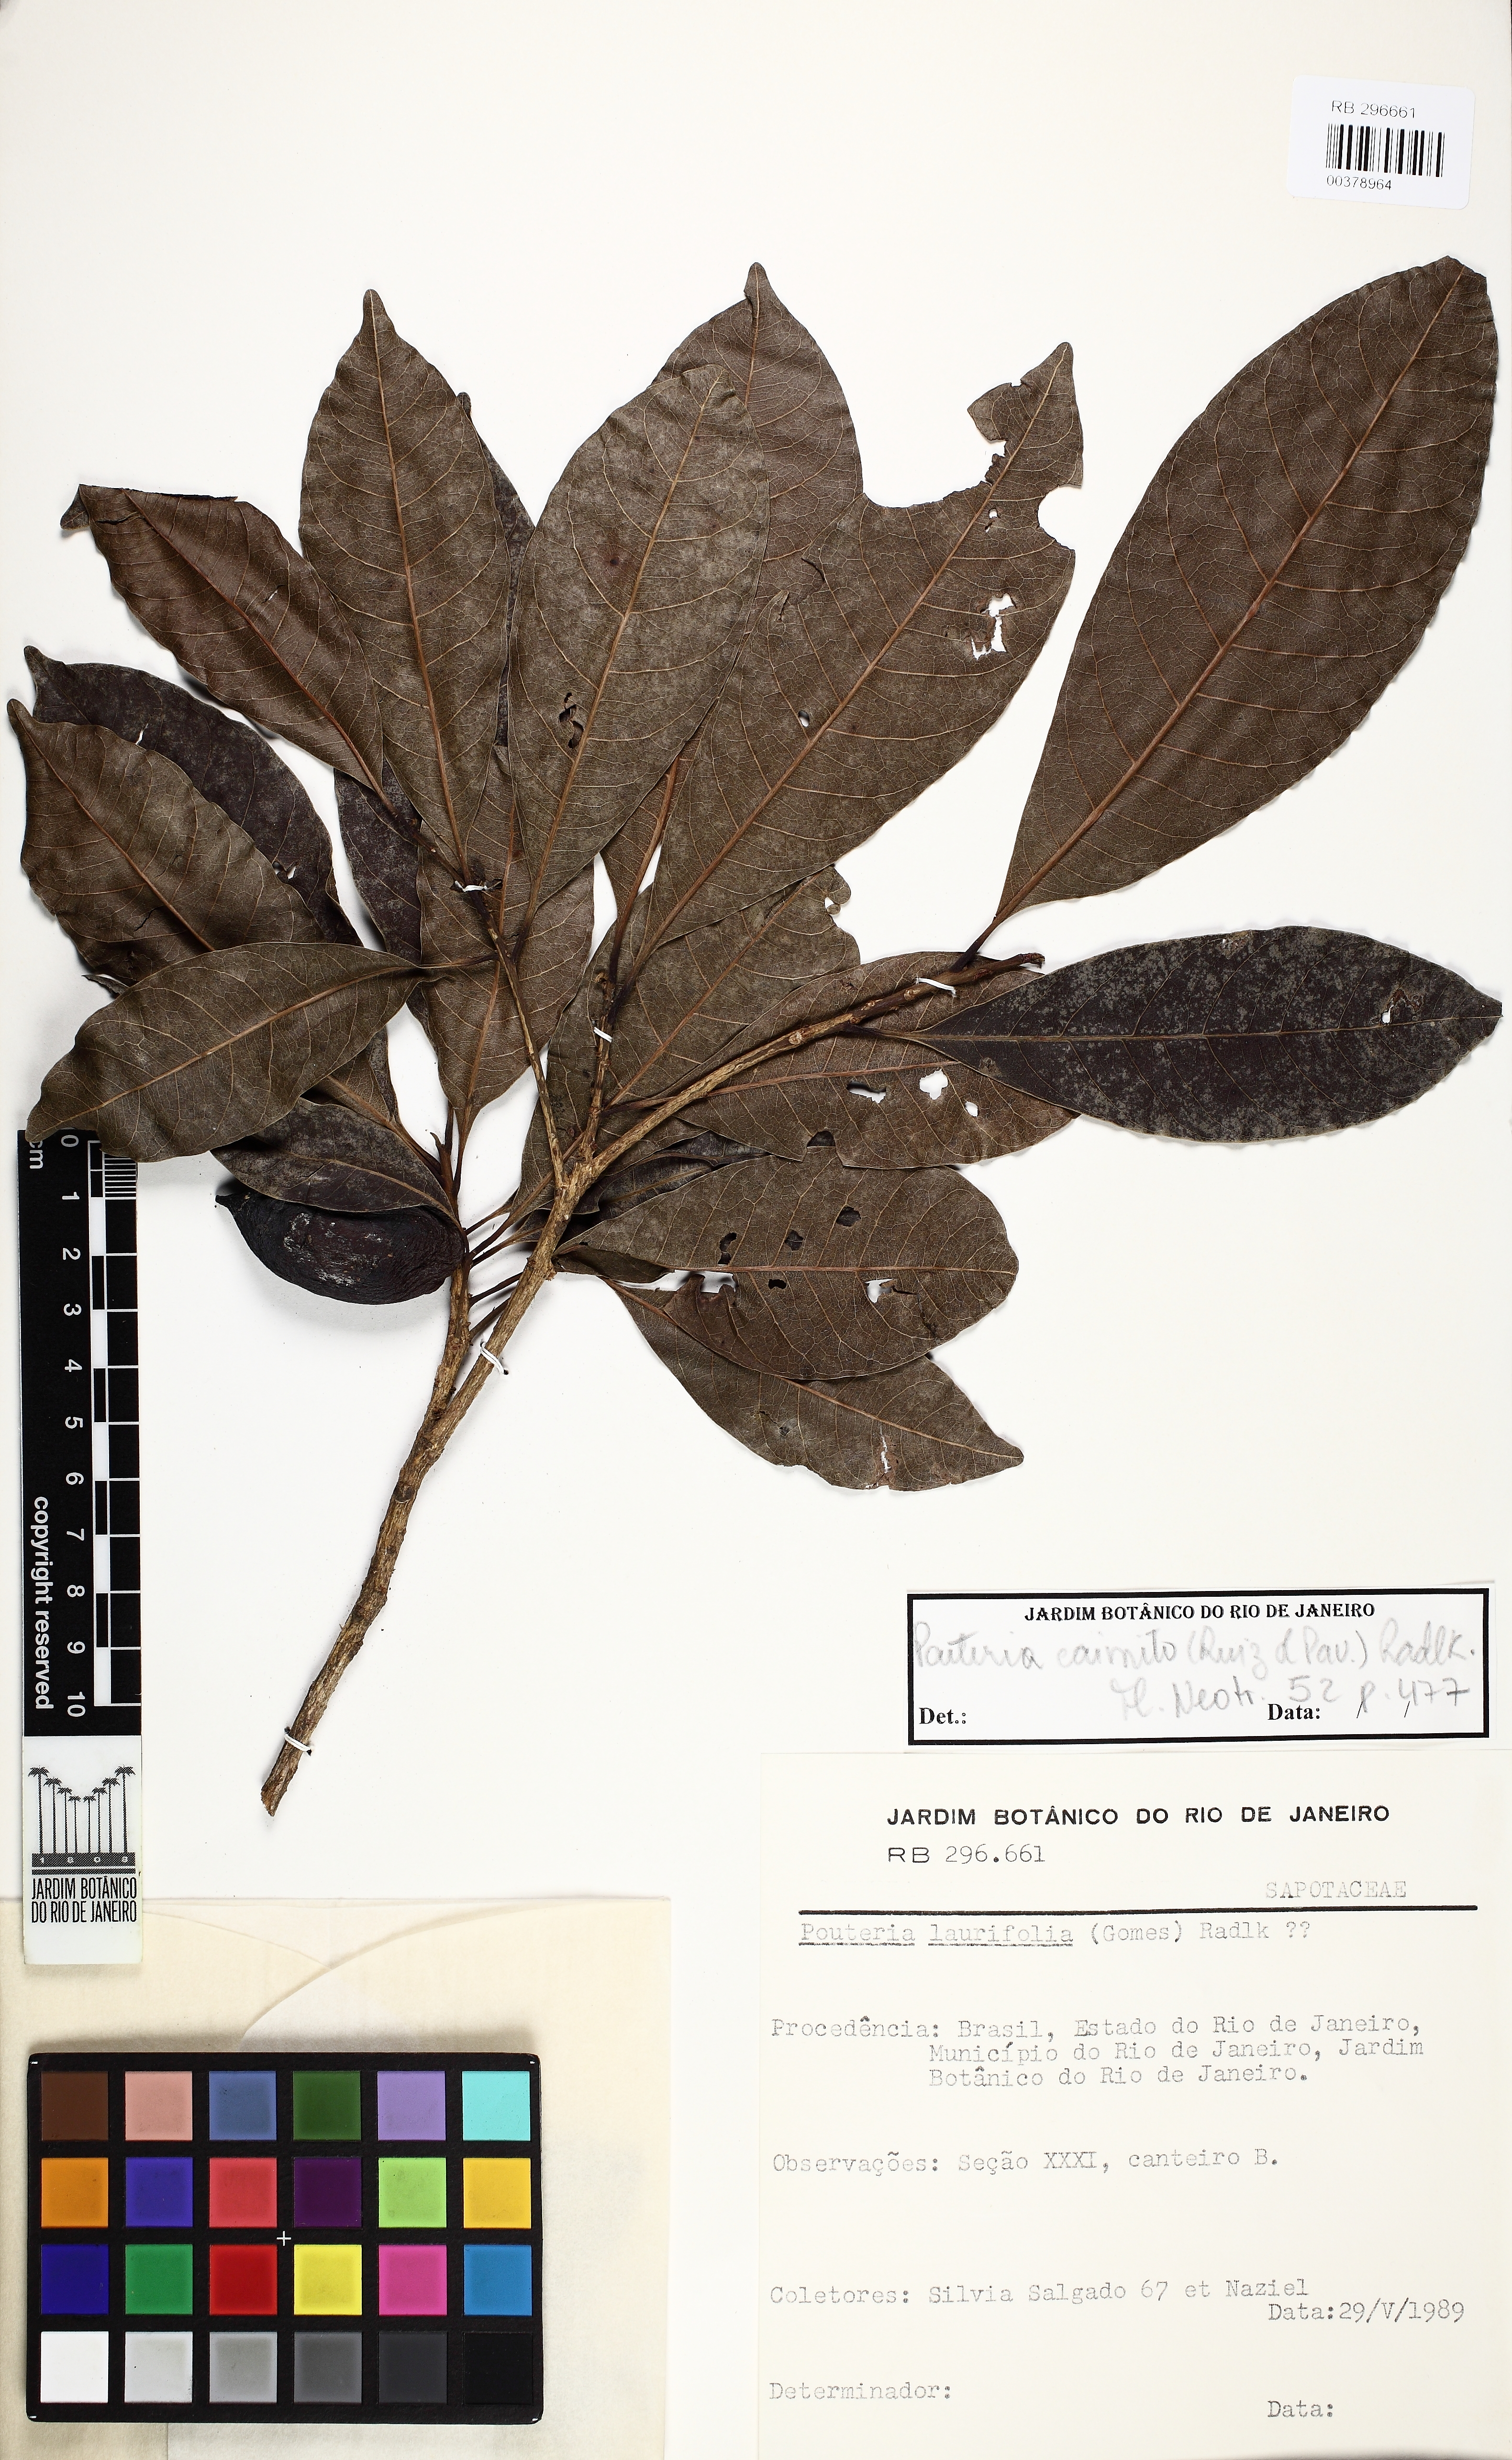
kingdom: Plantae
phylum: Tracheophyta
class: Magnoliopsida
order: Ericales
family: Sapotaceae
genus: Pouteria
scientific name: Pouteria caimito
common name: Caimito
